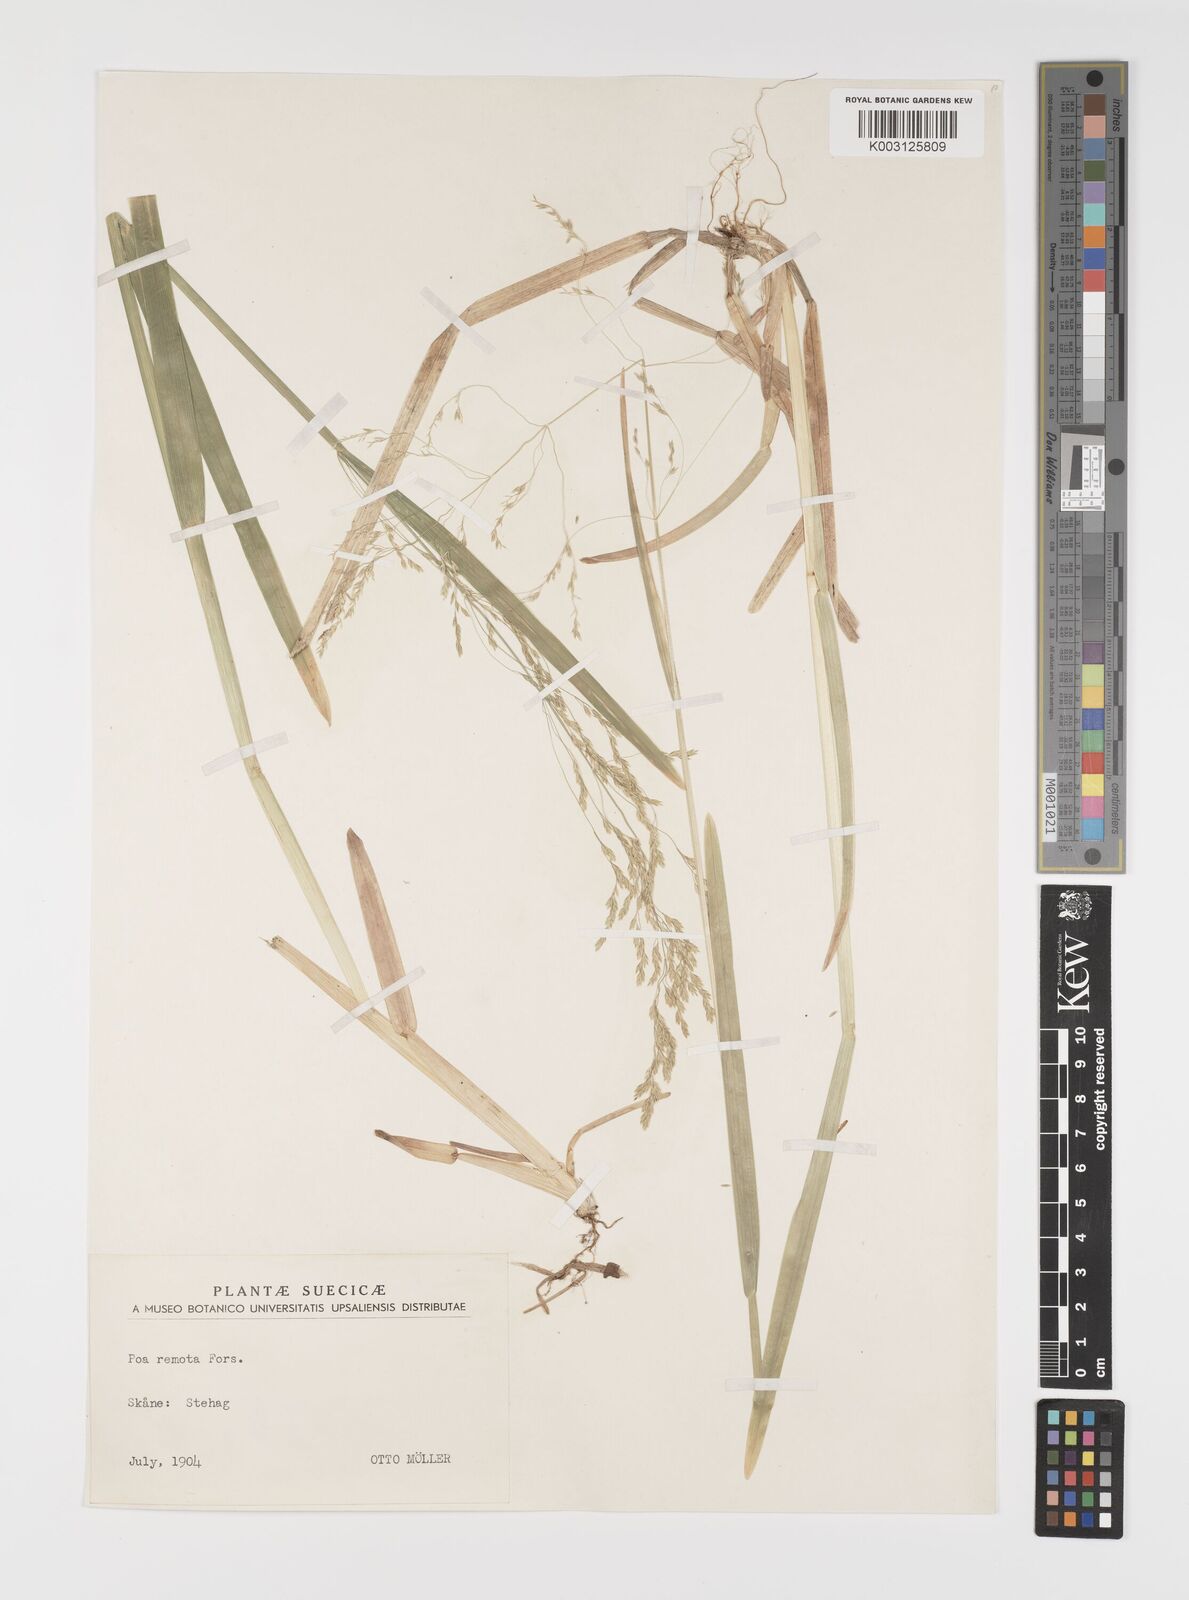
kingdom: Plantae
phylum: Tracheophyta
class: Liliopsida
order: Poales
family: Poaceae
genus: Poa
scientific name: Poa remota
